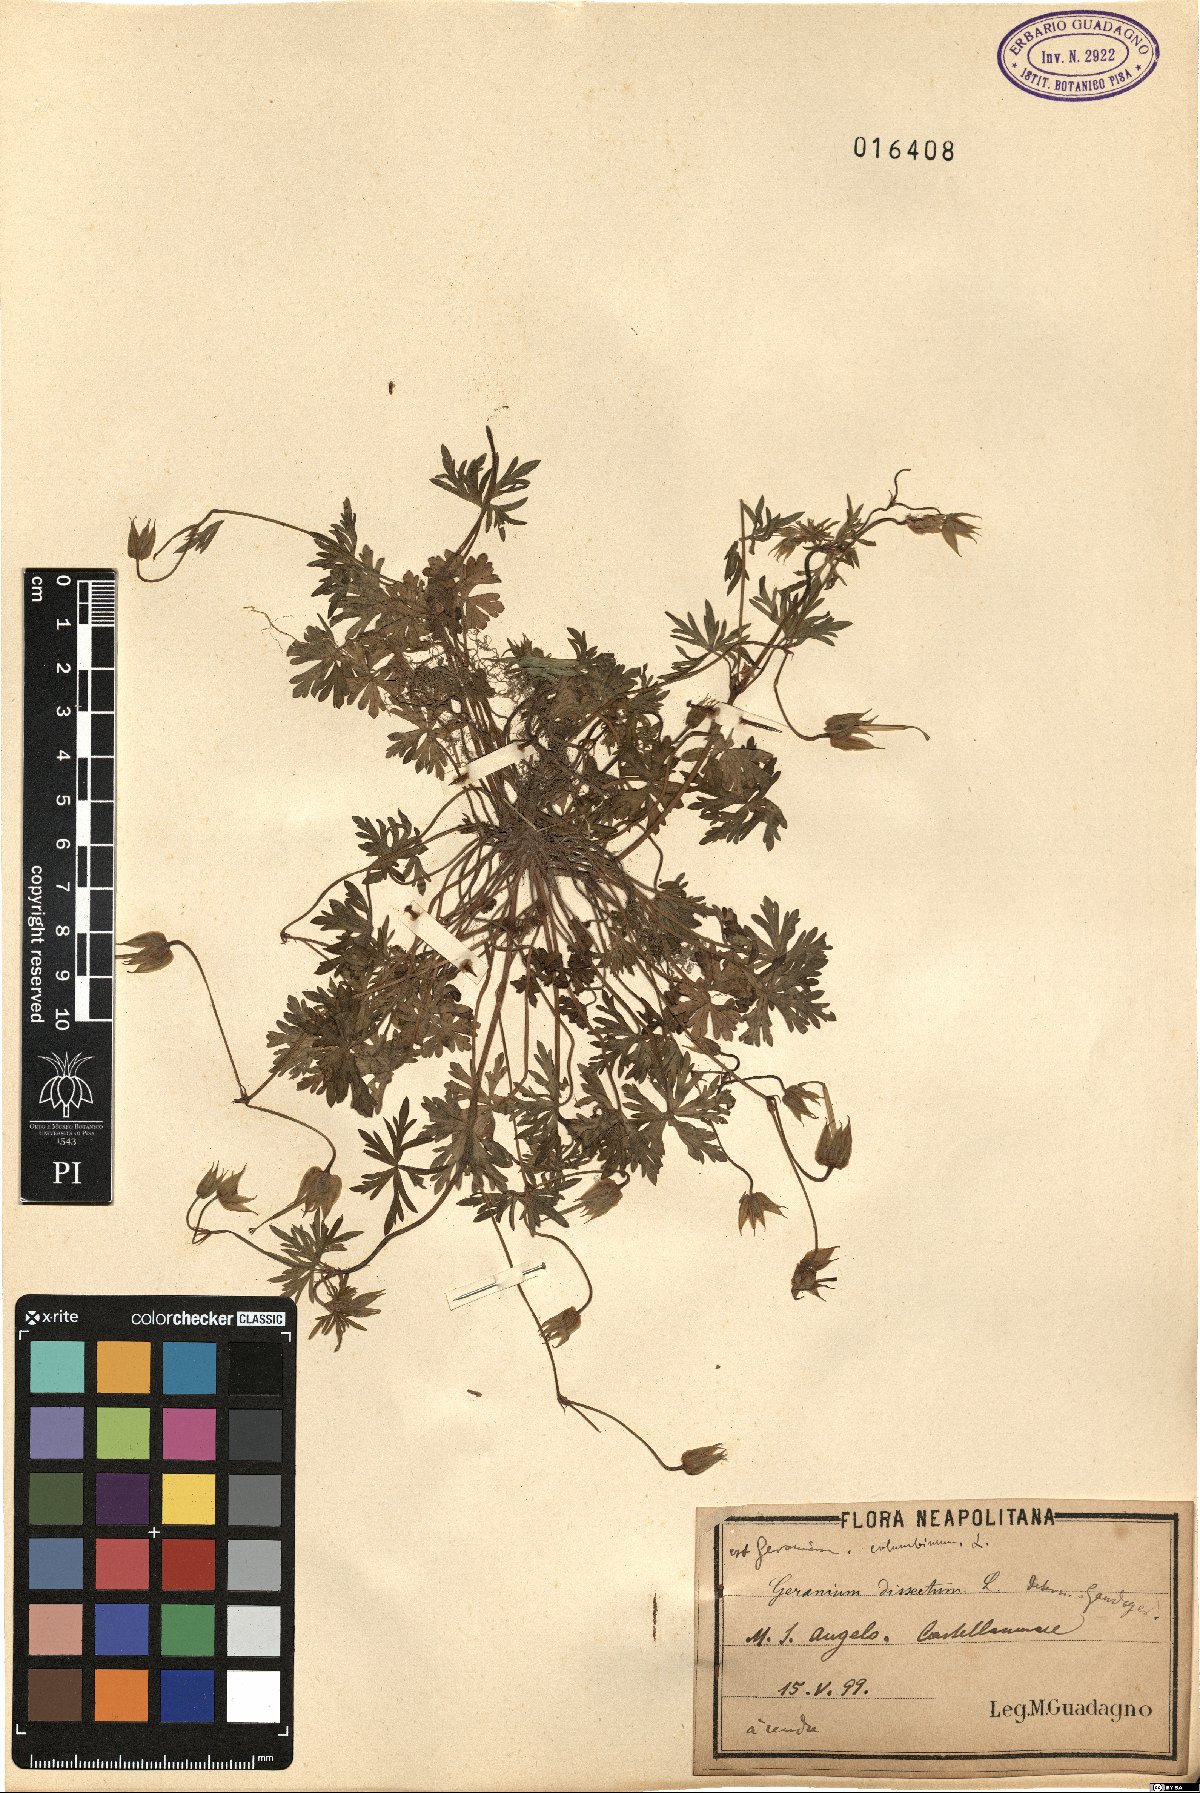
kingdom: Plantae
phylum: Tracheophyta
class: Magnoliopsida
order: Geraniales
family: Geraniaceae
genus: Geranium
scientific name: Geranium dissectum
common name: Cut-leaved crane's-bill
